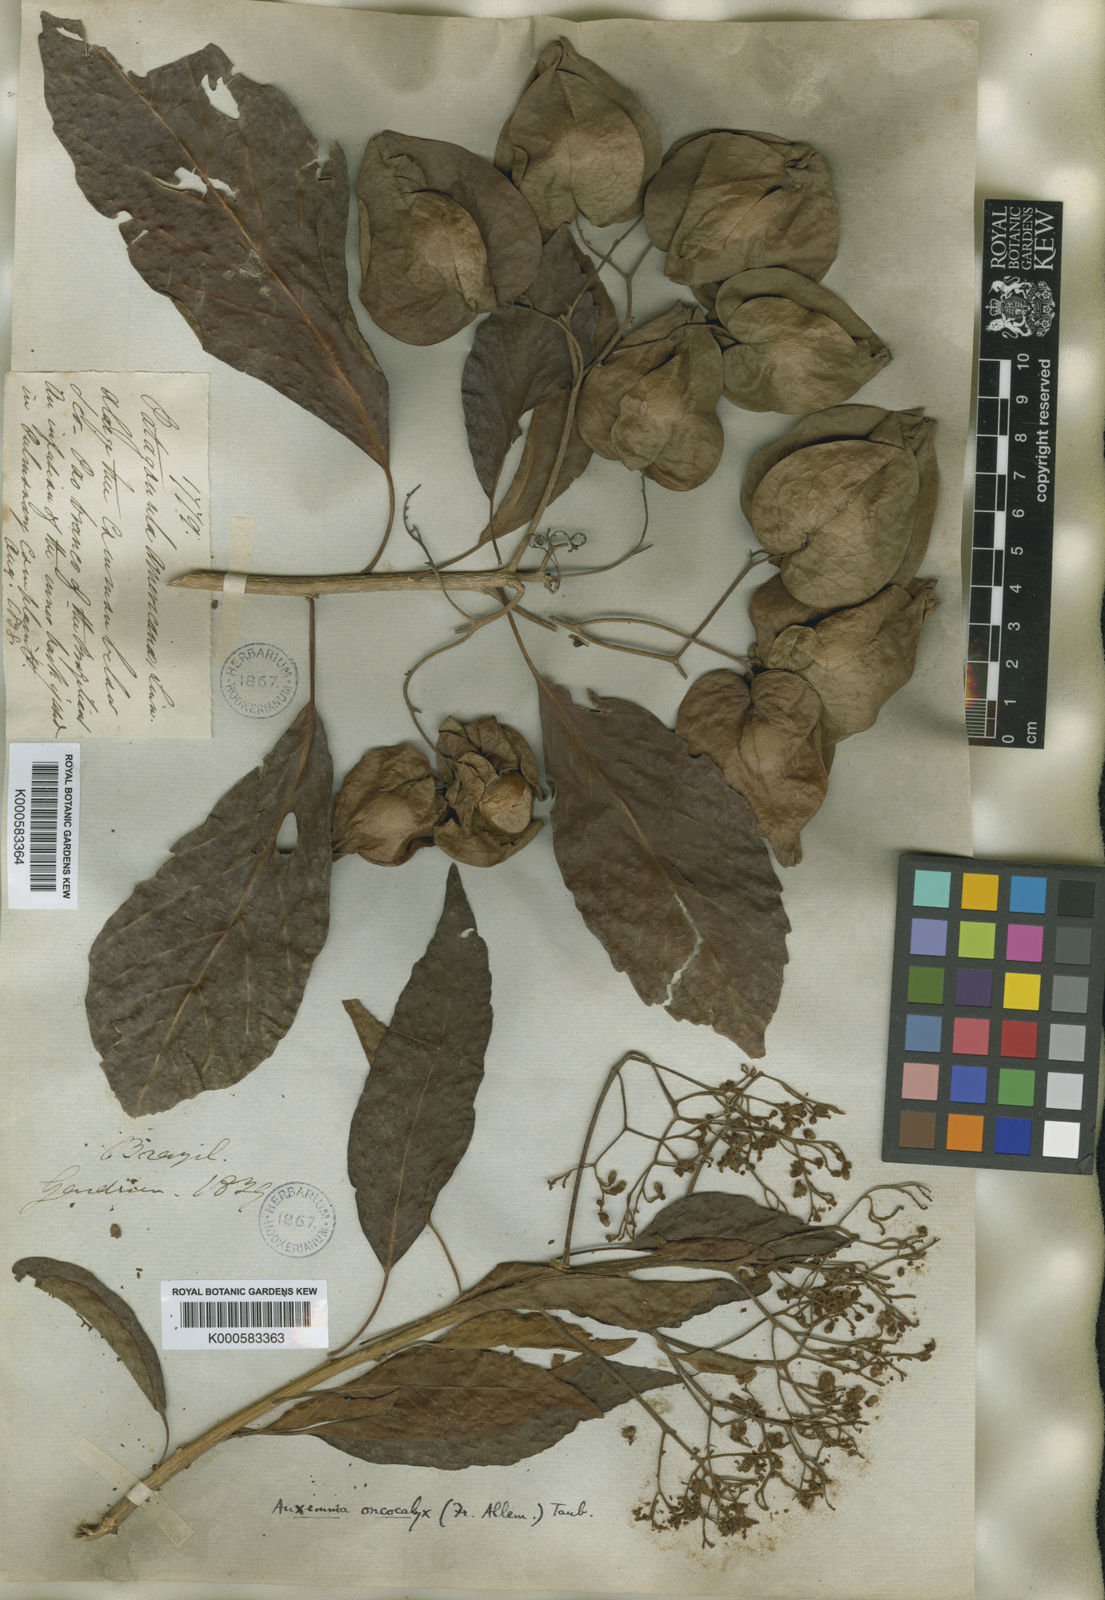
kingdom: Plantae
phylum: Tracheophyta
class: Magnoliopsida
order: Boraginales
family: Cordiaceae
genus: Cordia
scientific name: Cordia oncocalyx
